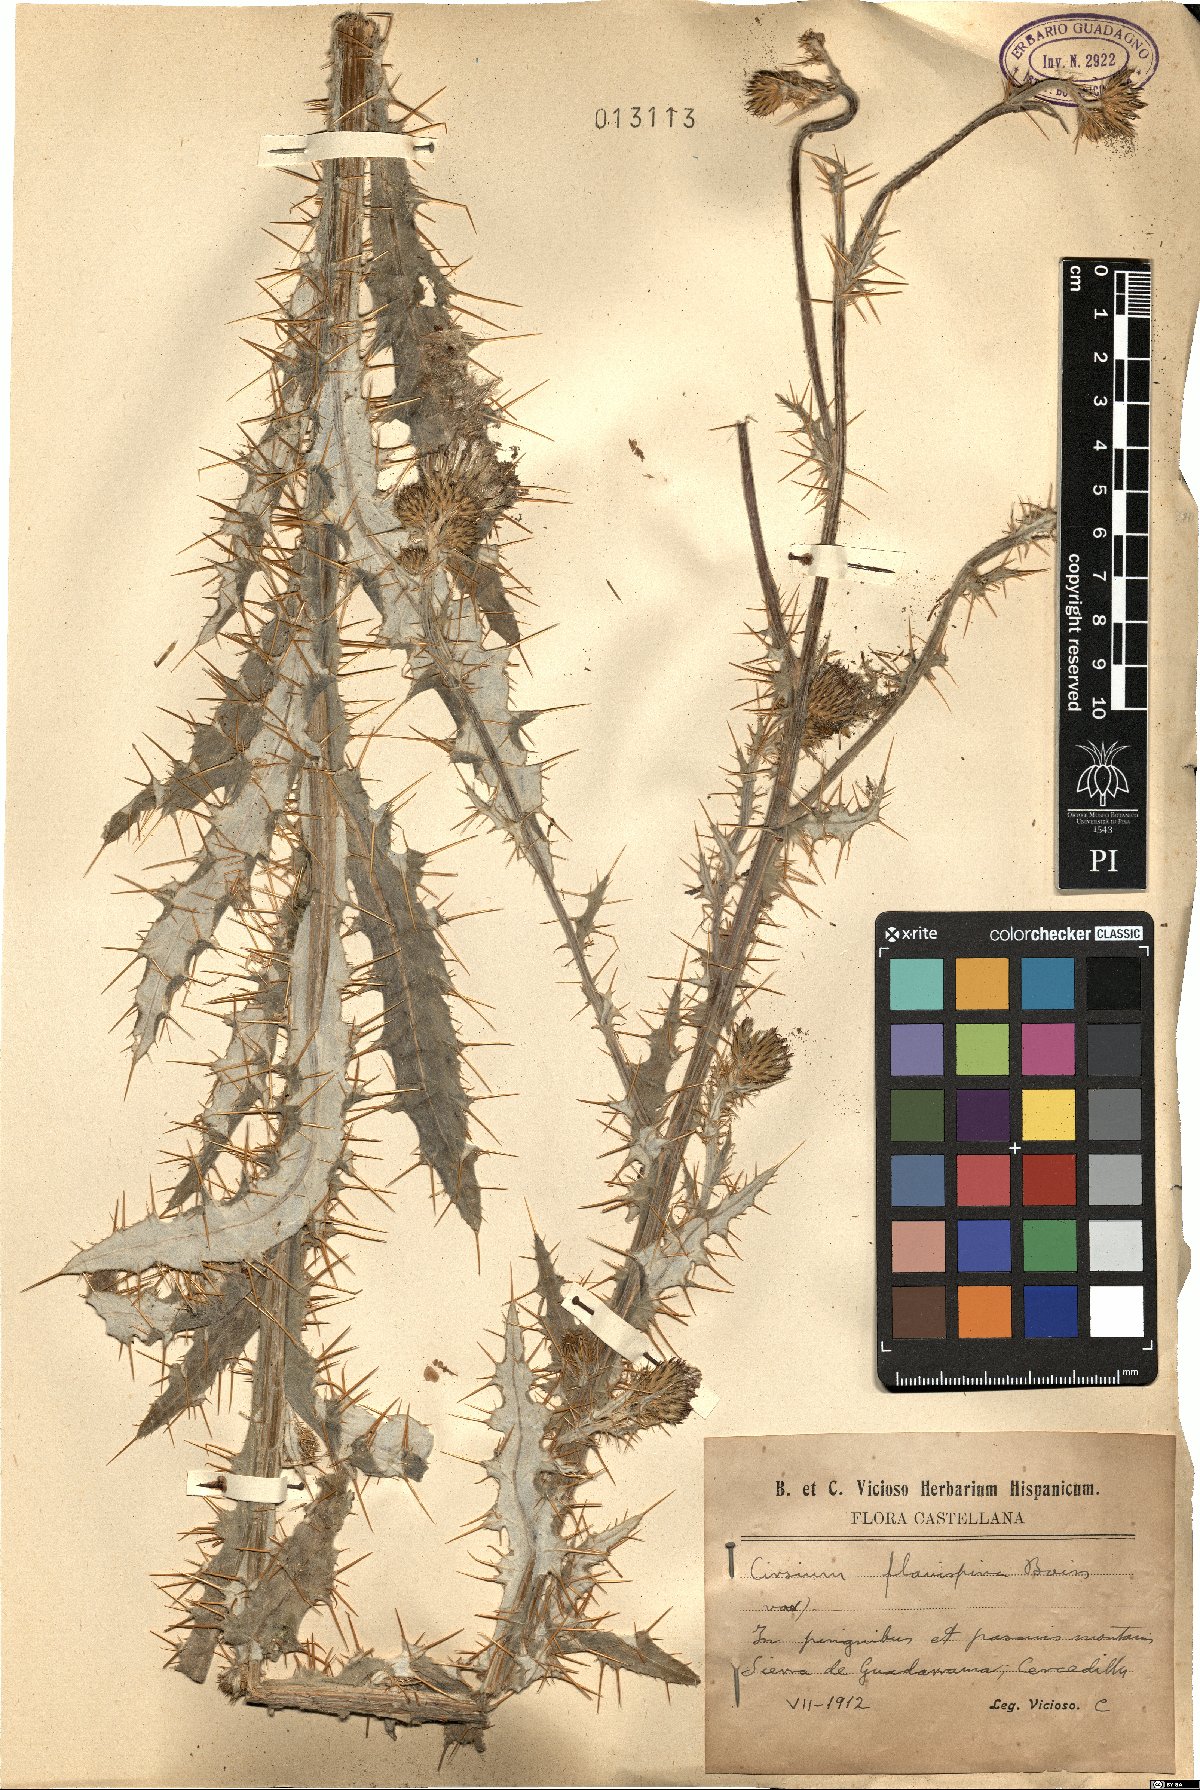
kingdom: Plantae
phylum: Tracheophyta
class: Magnoliopsida
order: Asterales
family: Asteraceae
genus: Cirsium
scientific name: Cirsium pyrenaicum
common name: Pyrenean thistle
